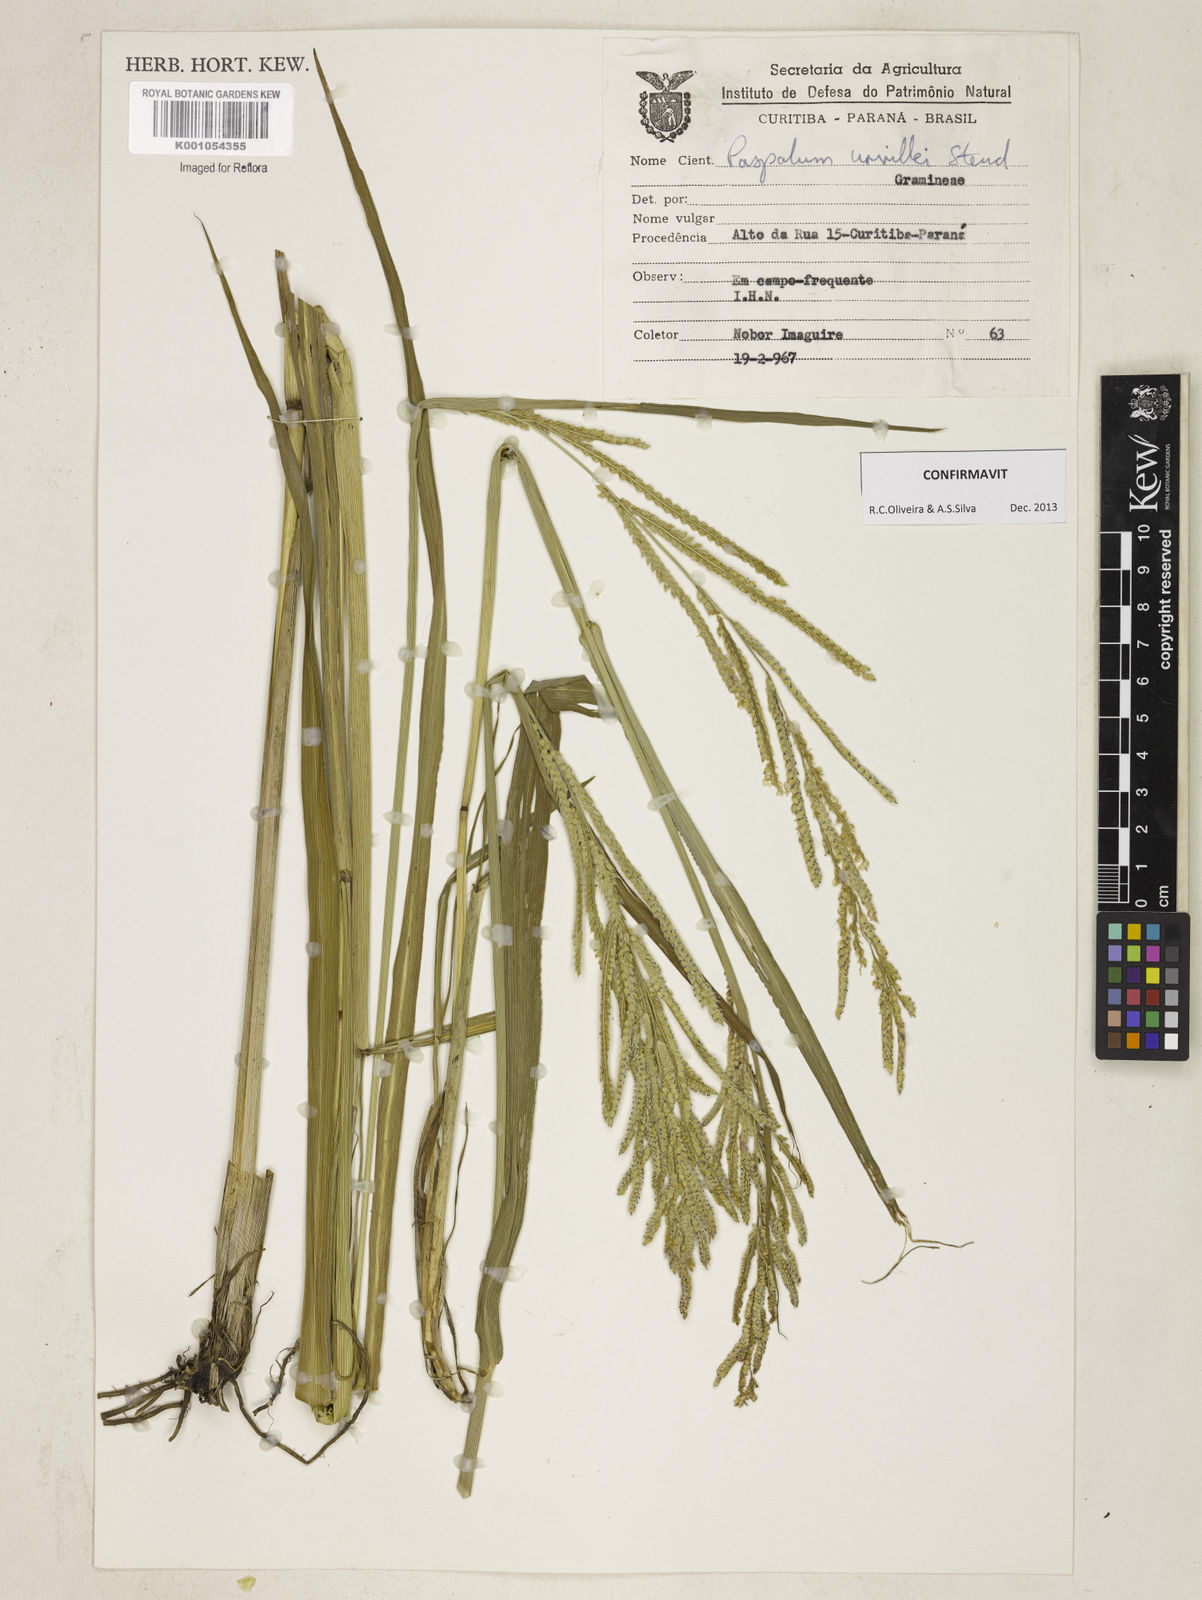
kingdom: Plantae
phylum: Tracheophyta
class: Liliopsida
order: Poales
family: Poaceae
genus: Paspalum
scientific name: Paspalum urvillei
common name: Vasey's grass
